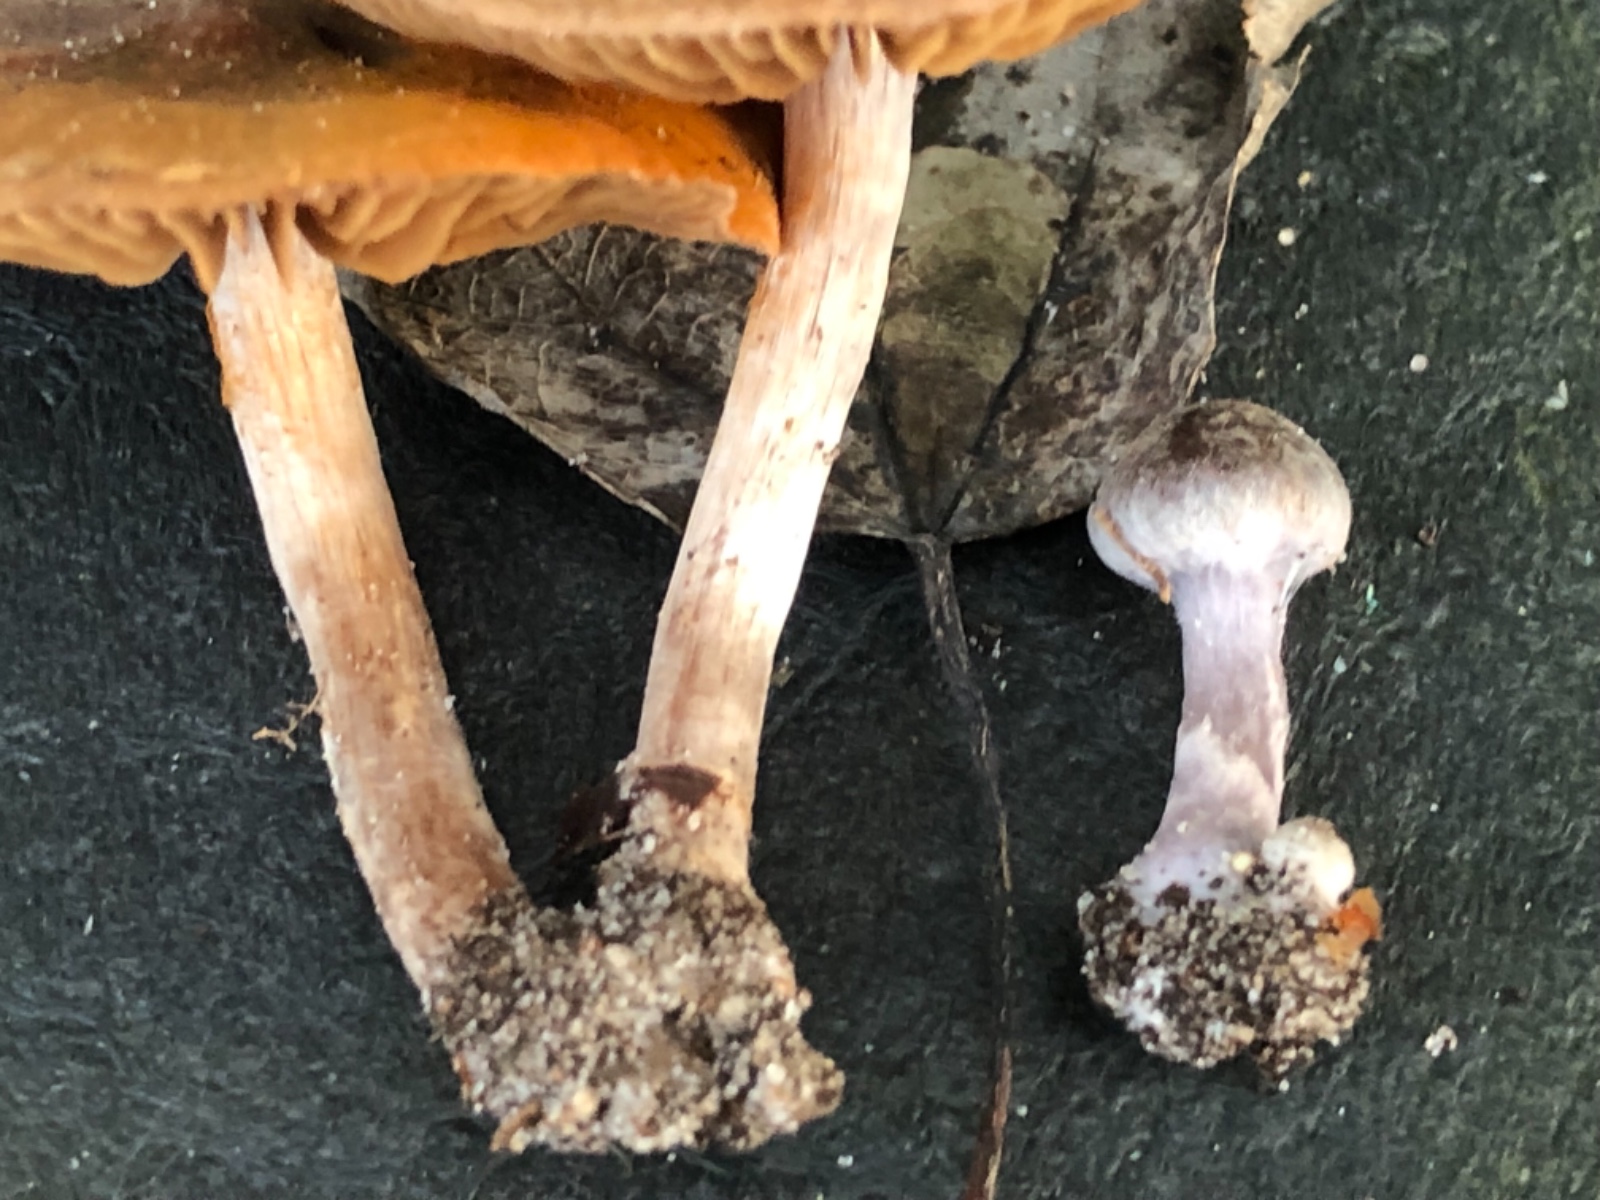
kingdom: Fungi
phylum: Basidiomycota
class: Agaricomycetes
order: Agaricales
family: Cortinariaceae
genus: Cortinarius
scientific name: Cortinarius decipiens
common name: blåsort slørhat
